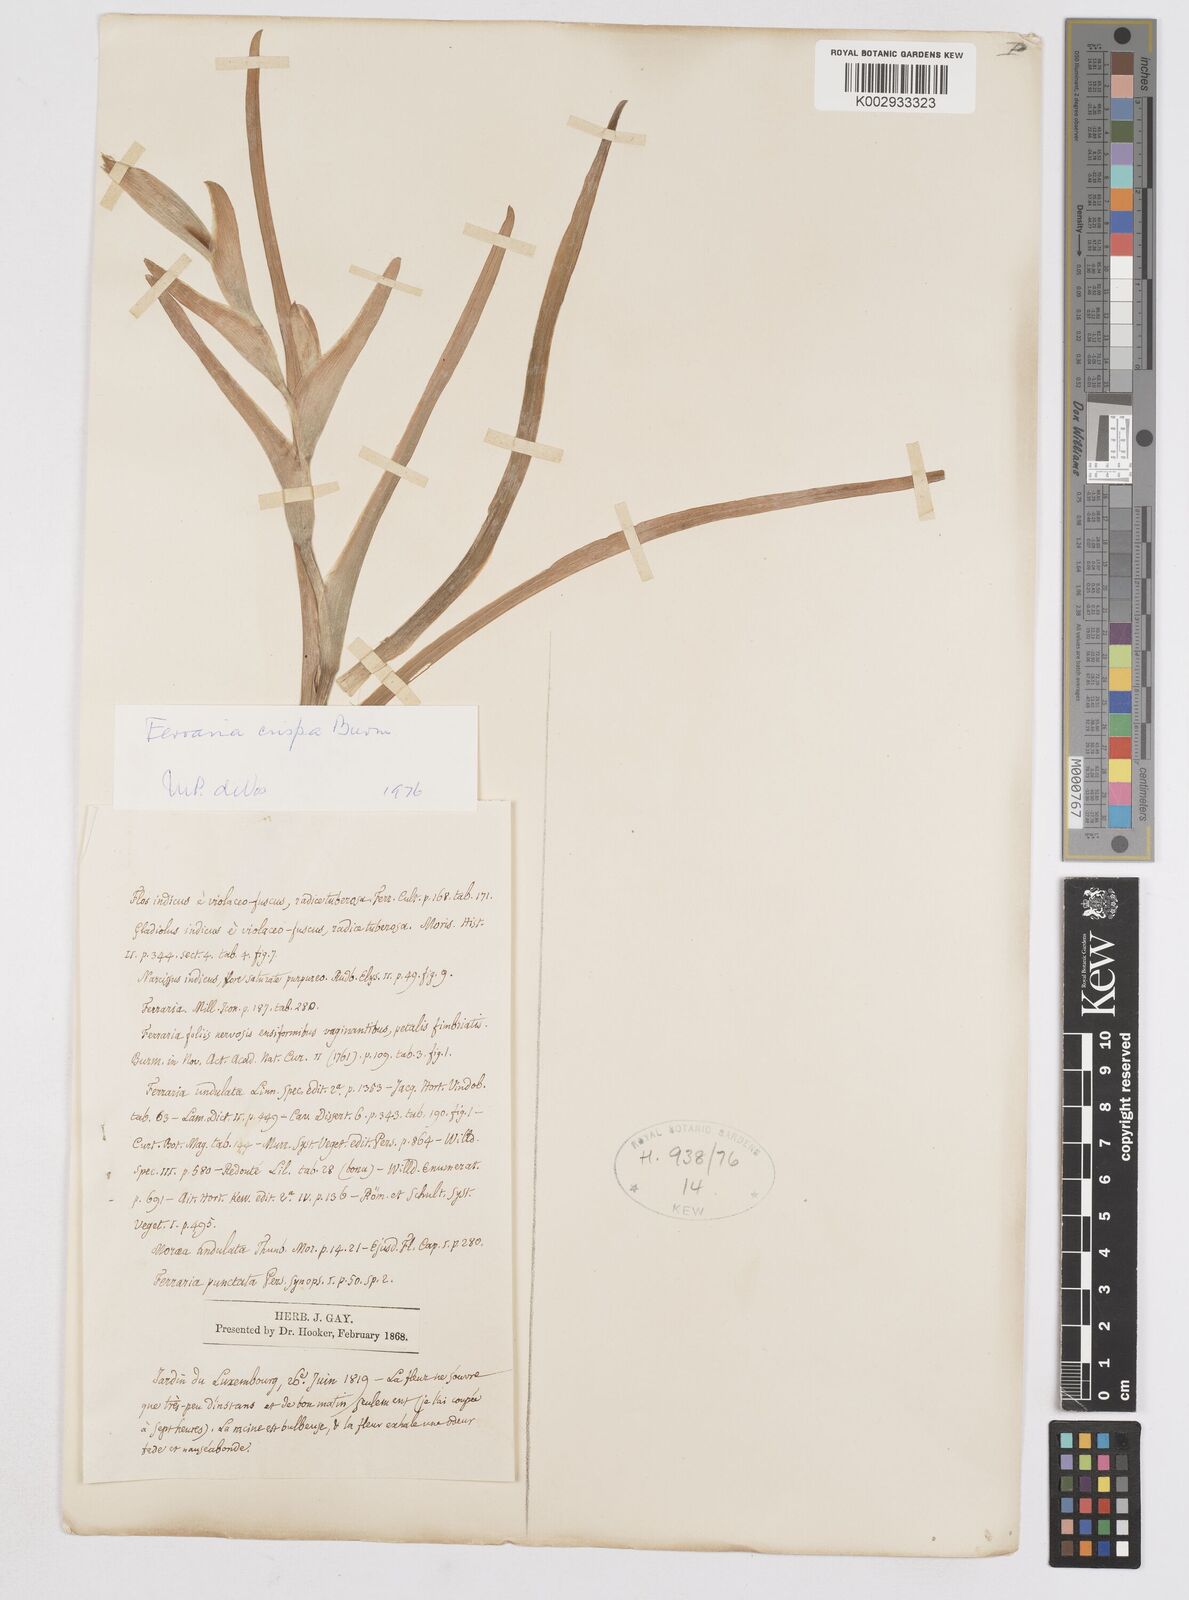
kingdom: Plantae
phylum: Tracheophyta
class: Liliopsida
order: Asparagales
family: Iridaceae
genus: Ferraria
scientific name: Ferraria crispa
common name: Black-flag
